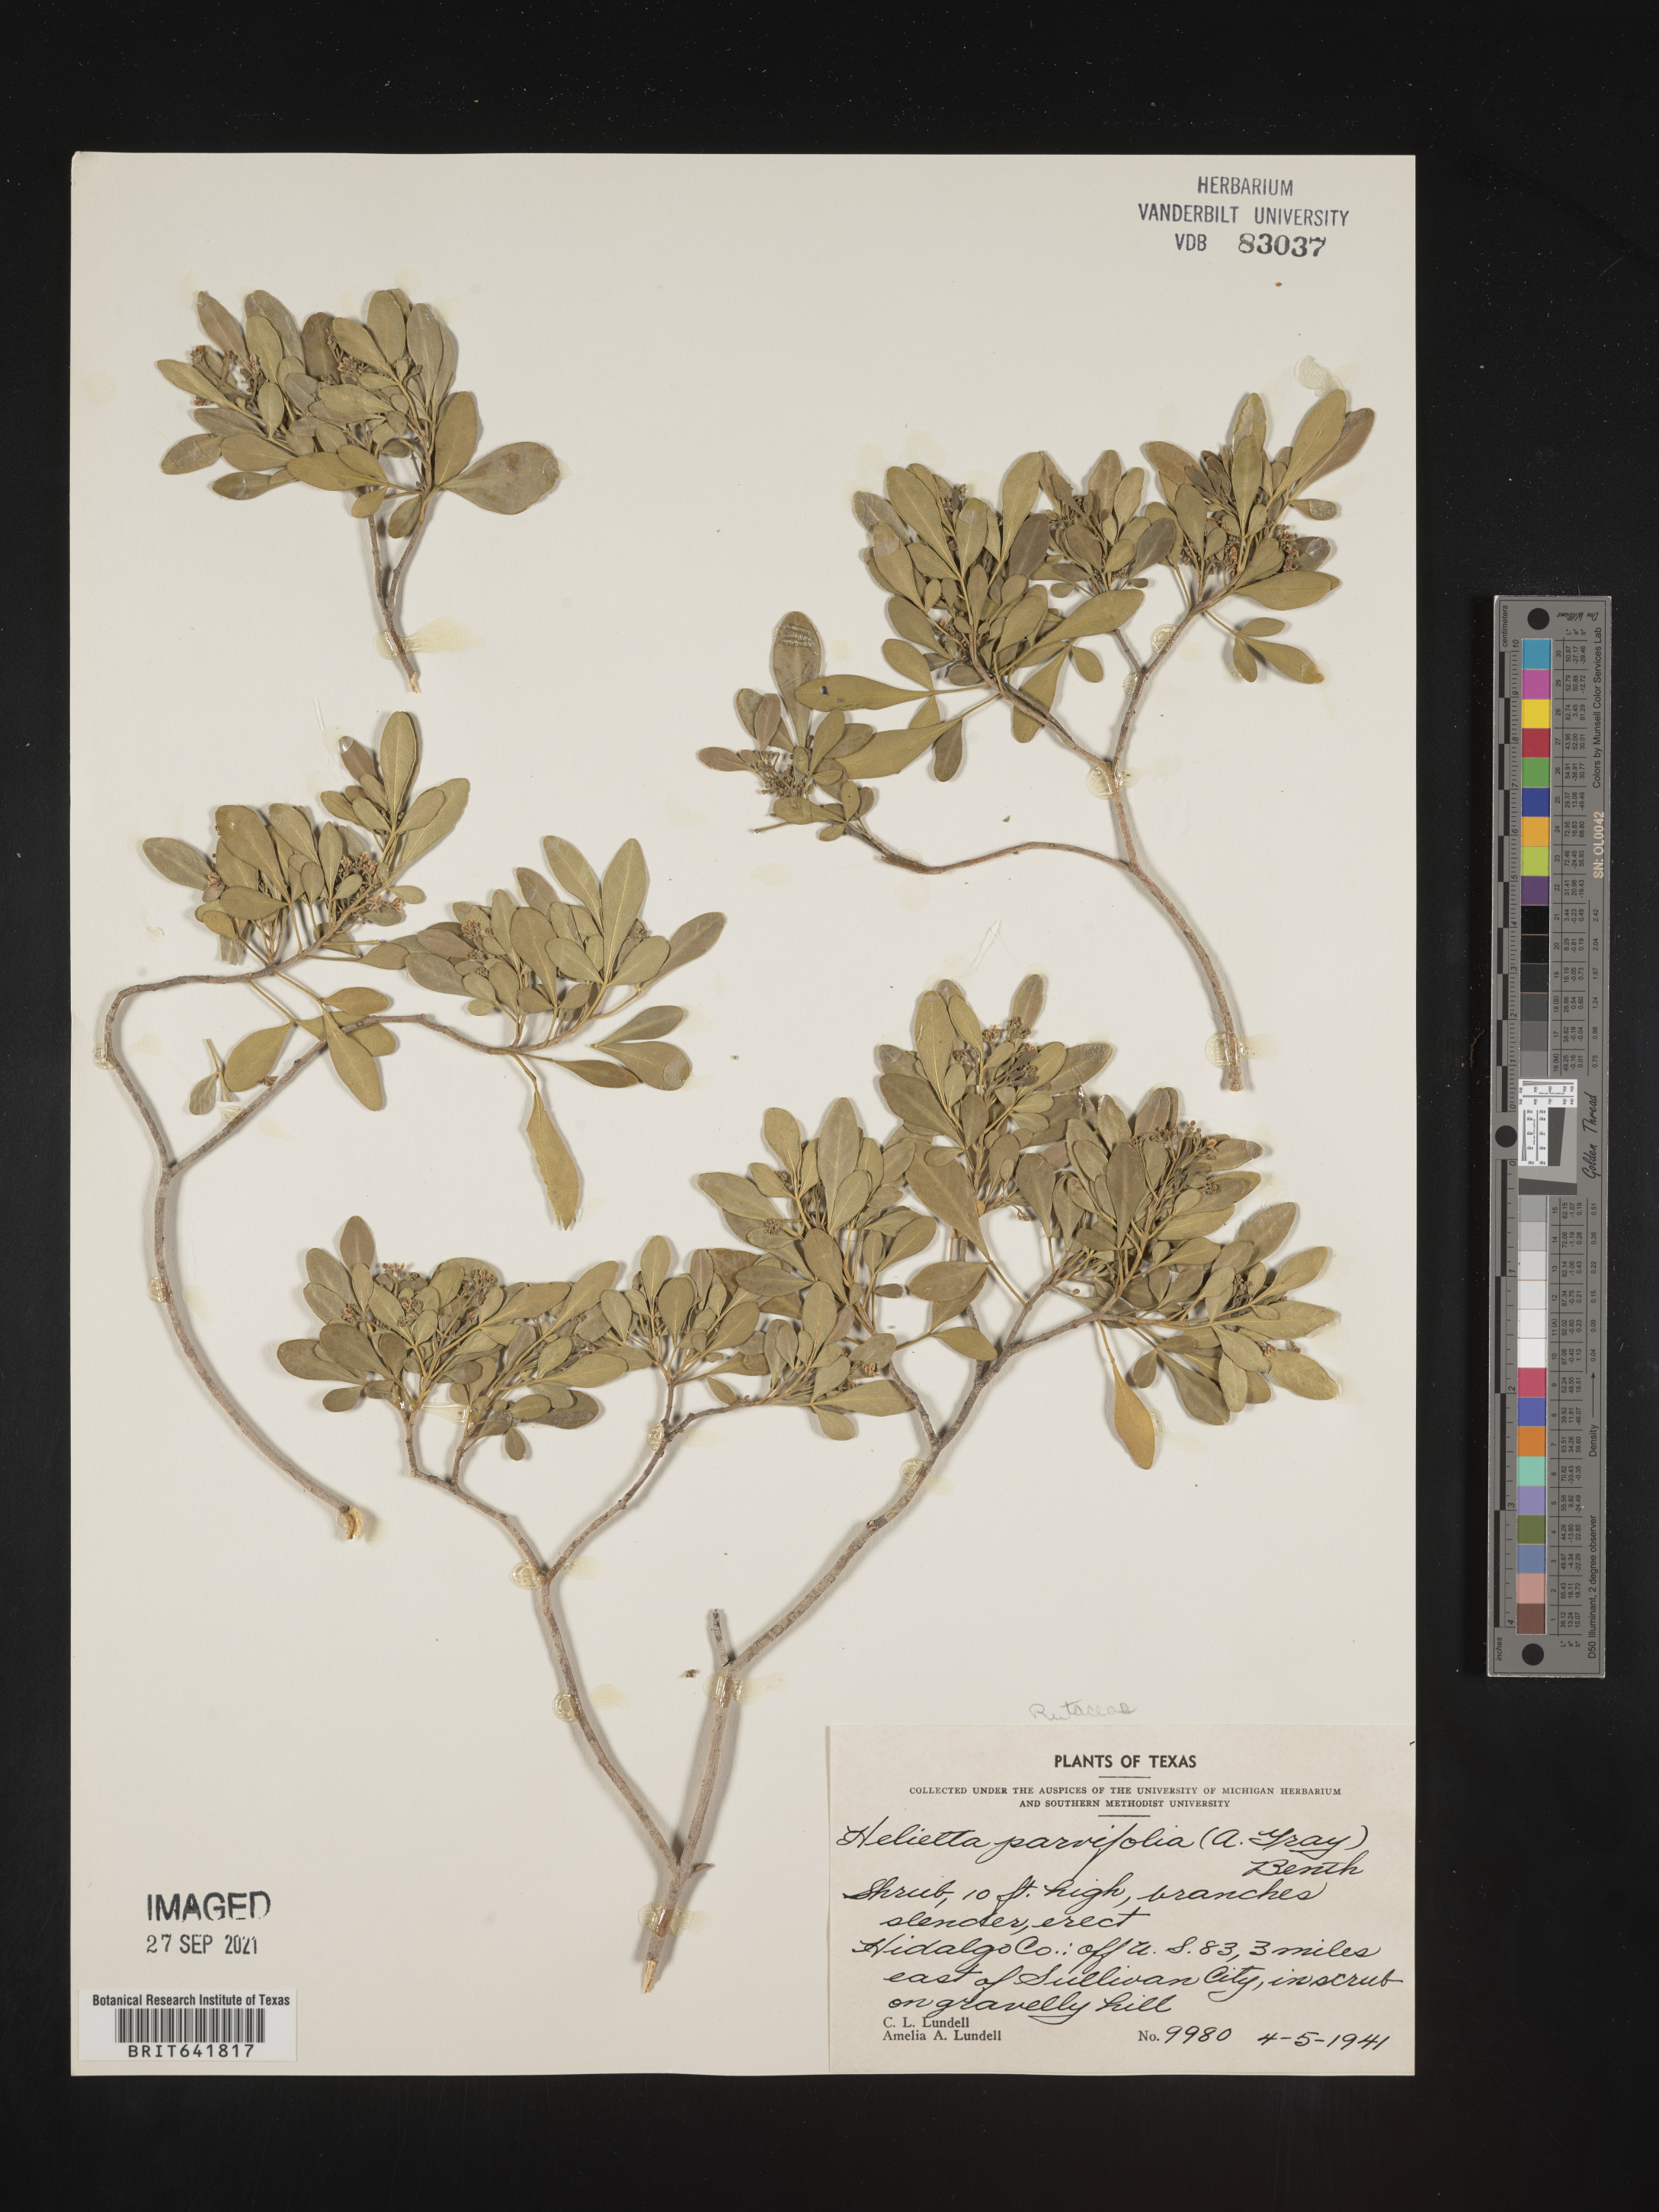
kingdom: Plantae
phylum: Tracheophyta
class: Magnoliopsida
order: Sapindales
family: Rutaceae
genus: Helietta
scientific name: Helietta
